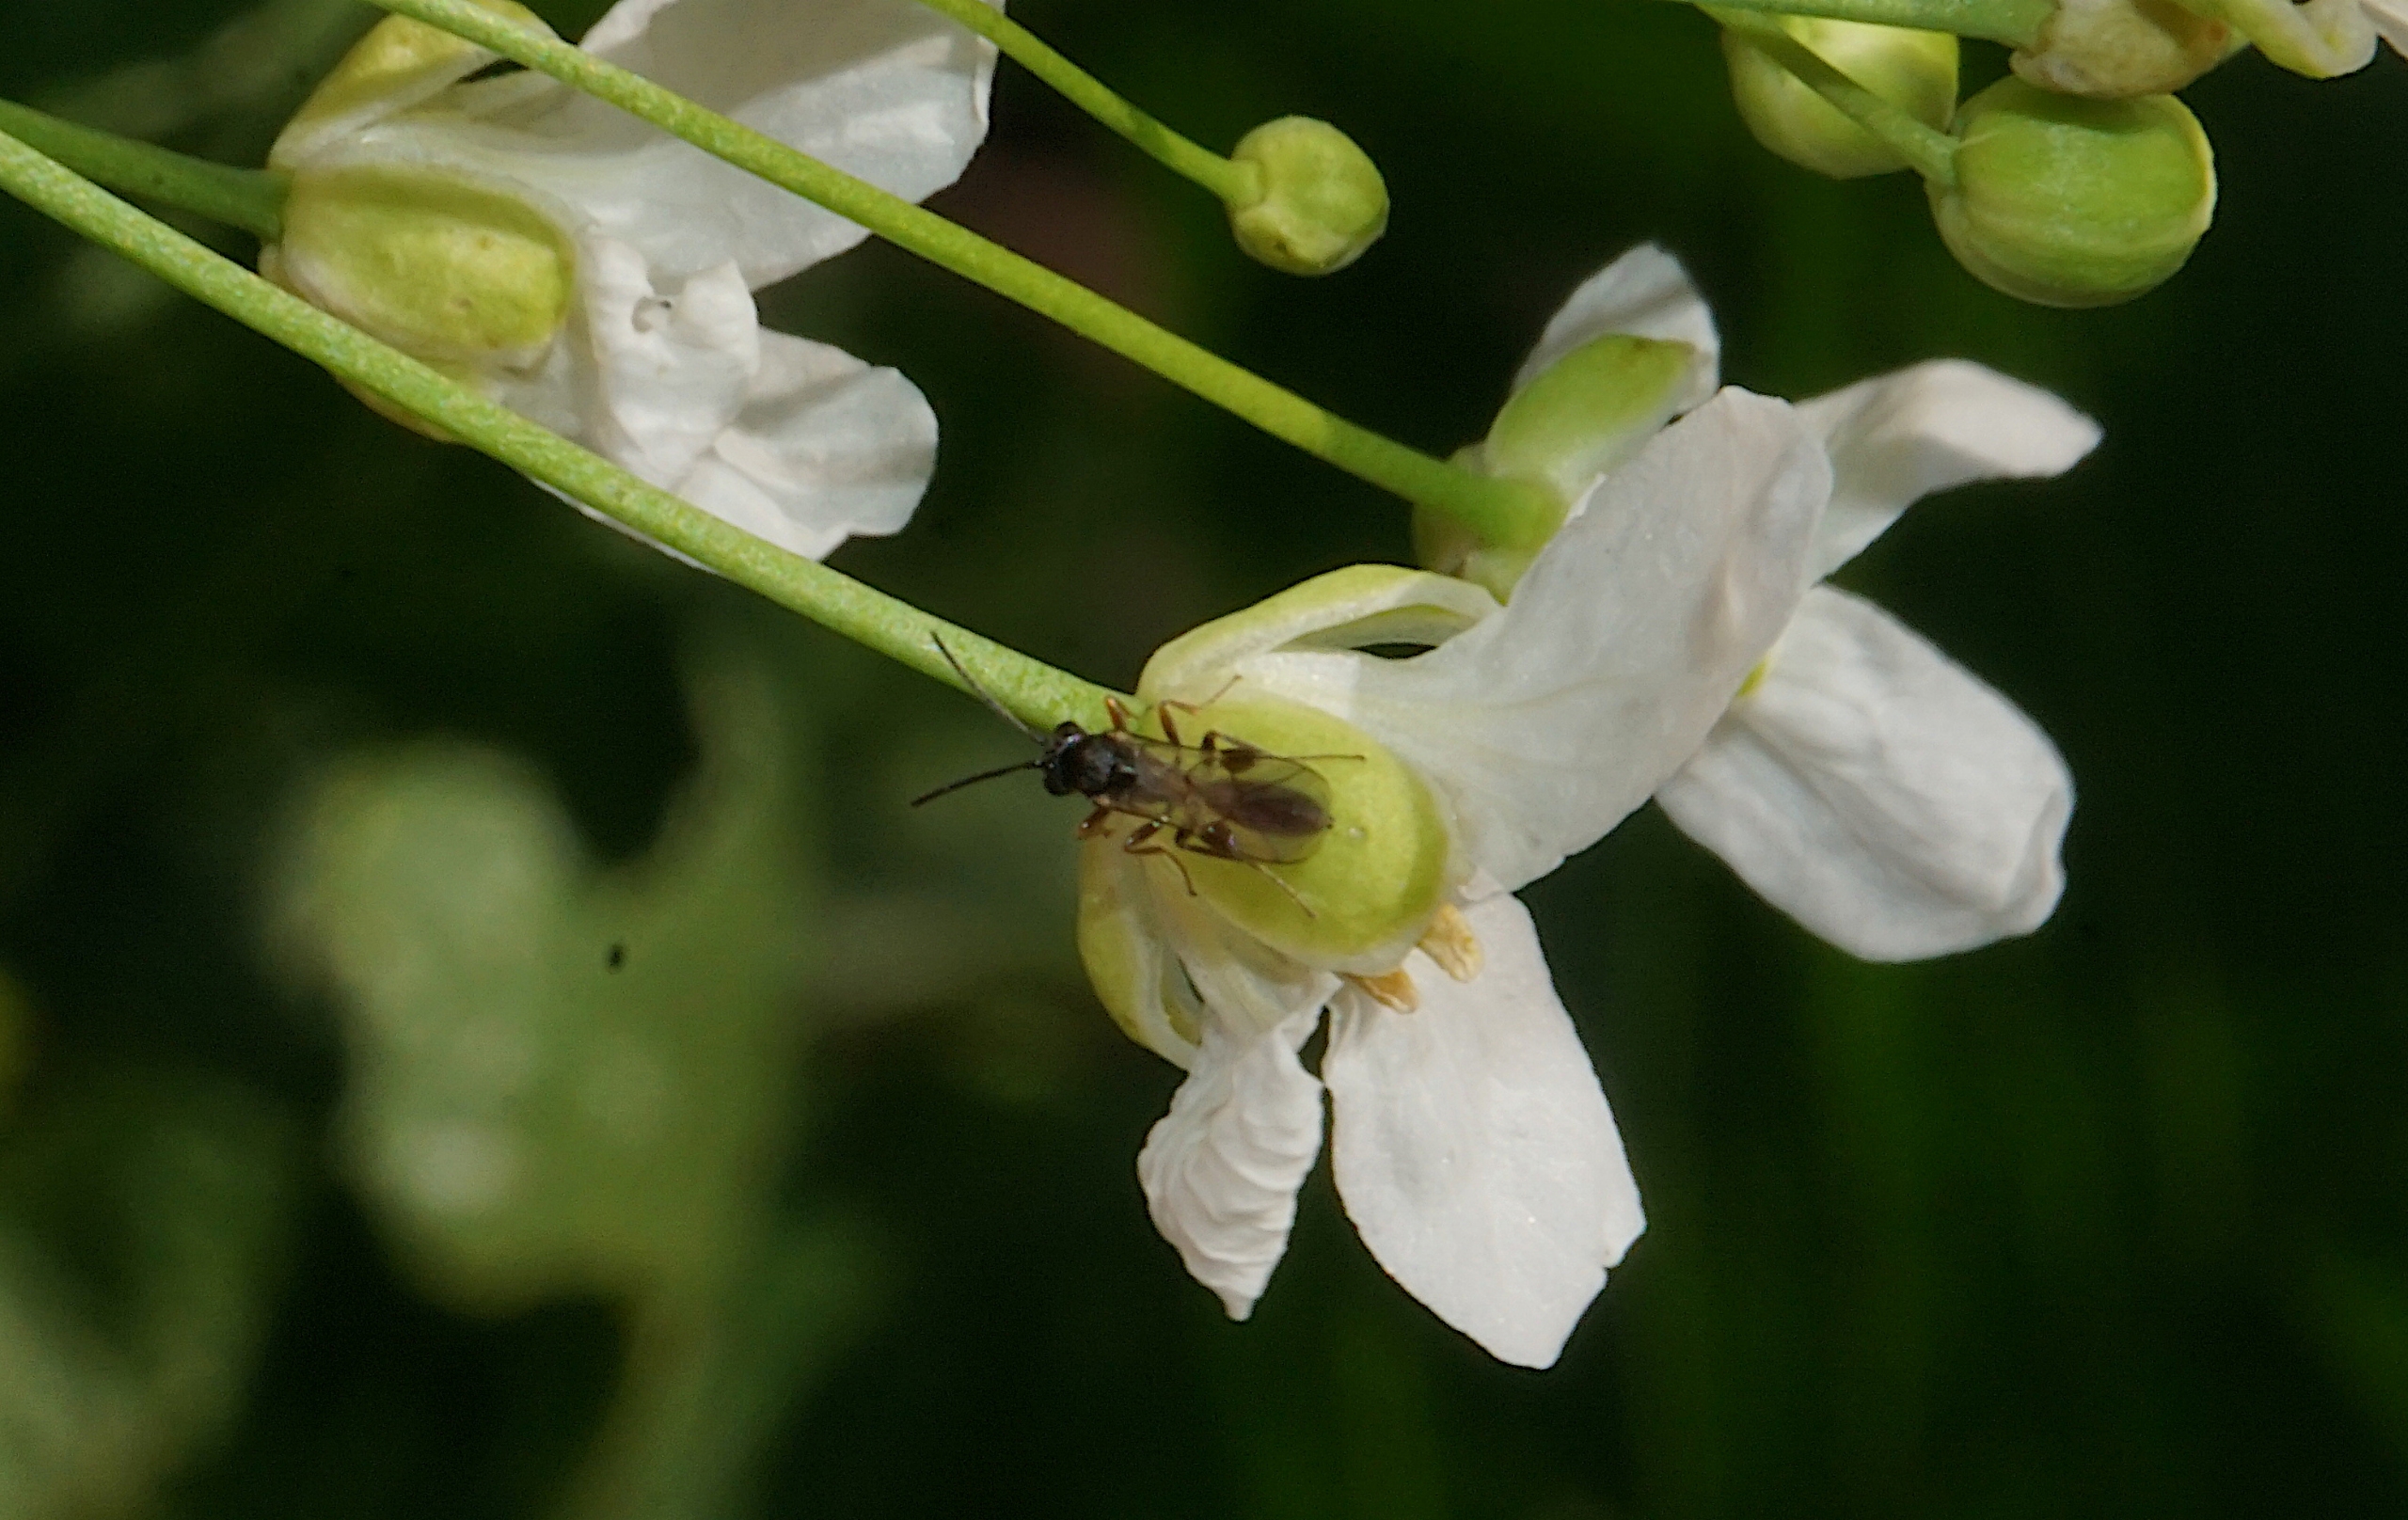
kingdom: Animalia
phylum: Arthropoda
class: Insecta
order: Hymenoptera
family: Ichneumonidae
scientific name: Ichneumonidae
